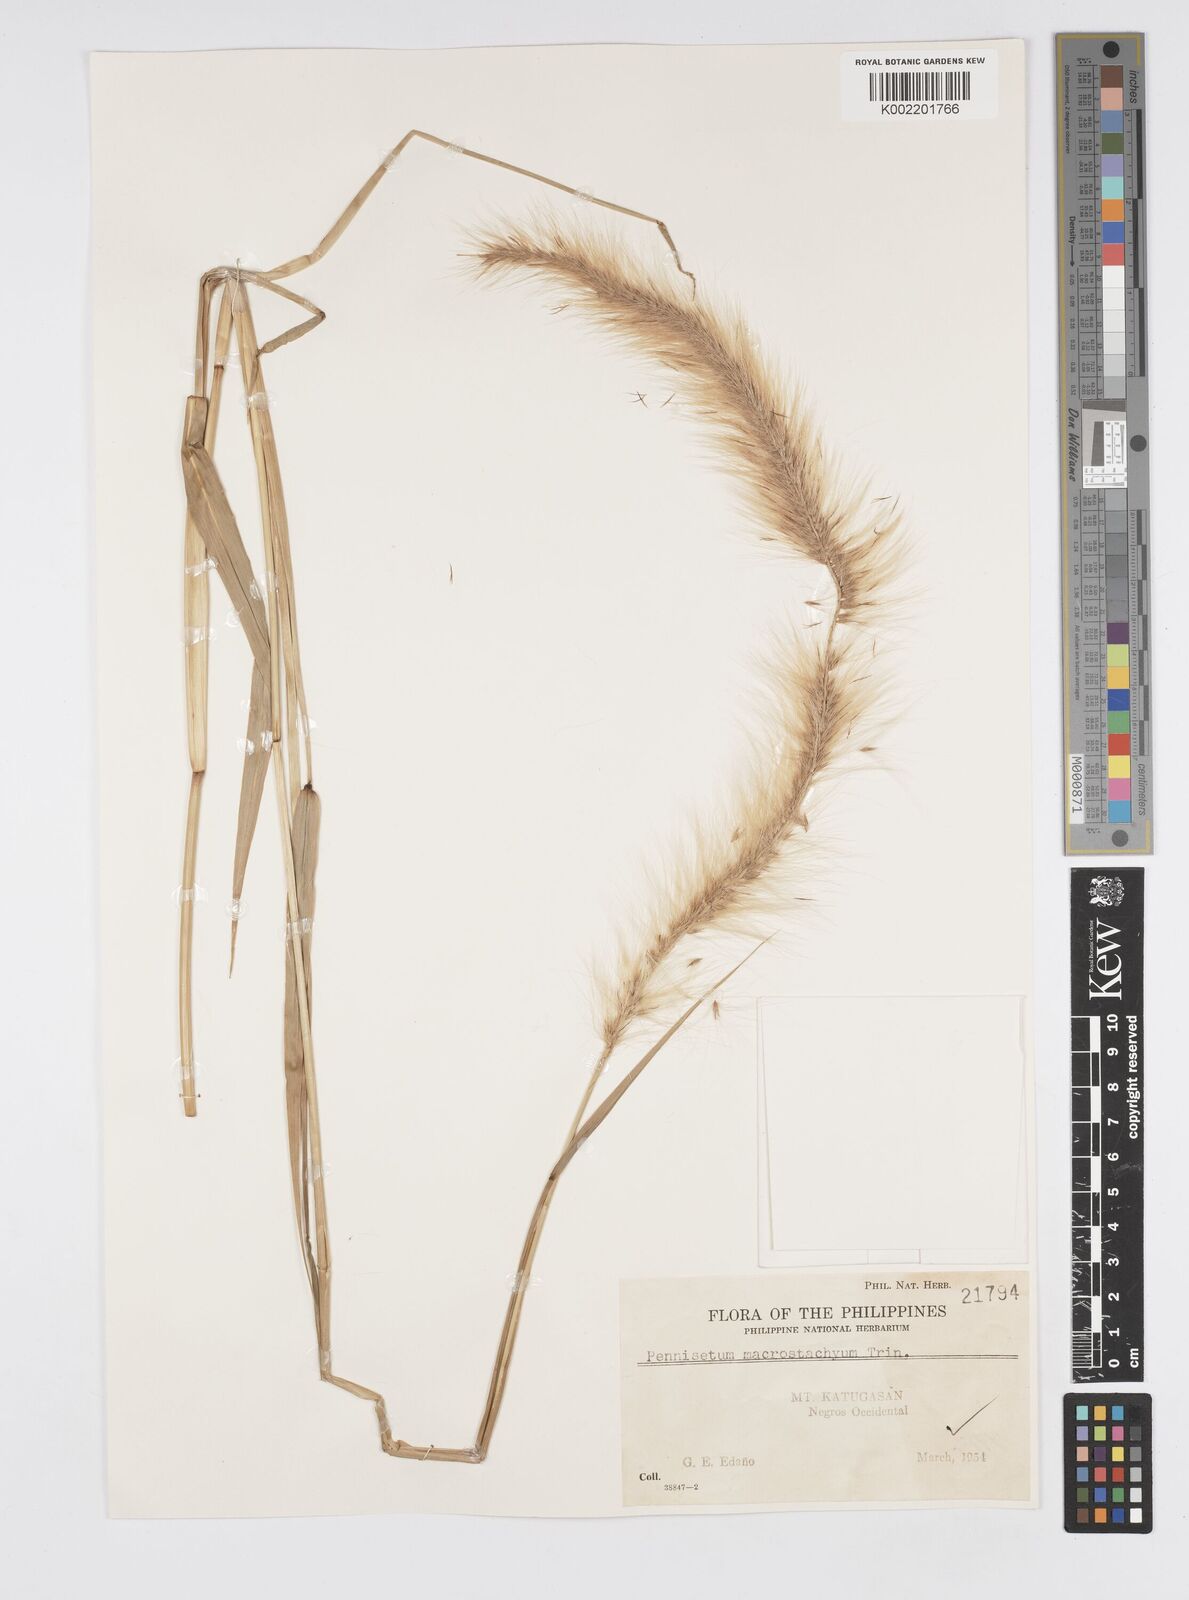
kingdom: Plantae
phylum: Tracheophyta
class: Liliopsida
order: Poales
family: Poaceae
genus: Cenchrus
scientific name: Cenchrus purpureus
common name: Elephant grass
